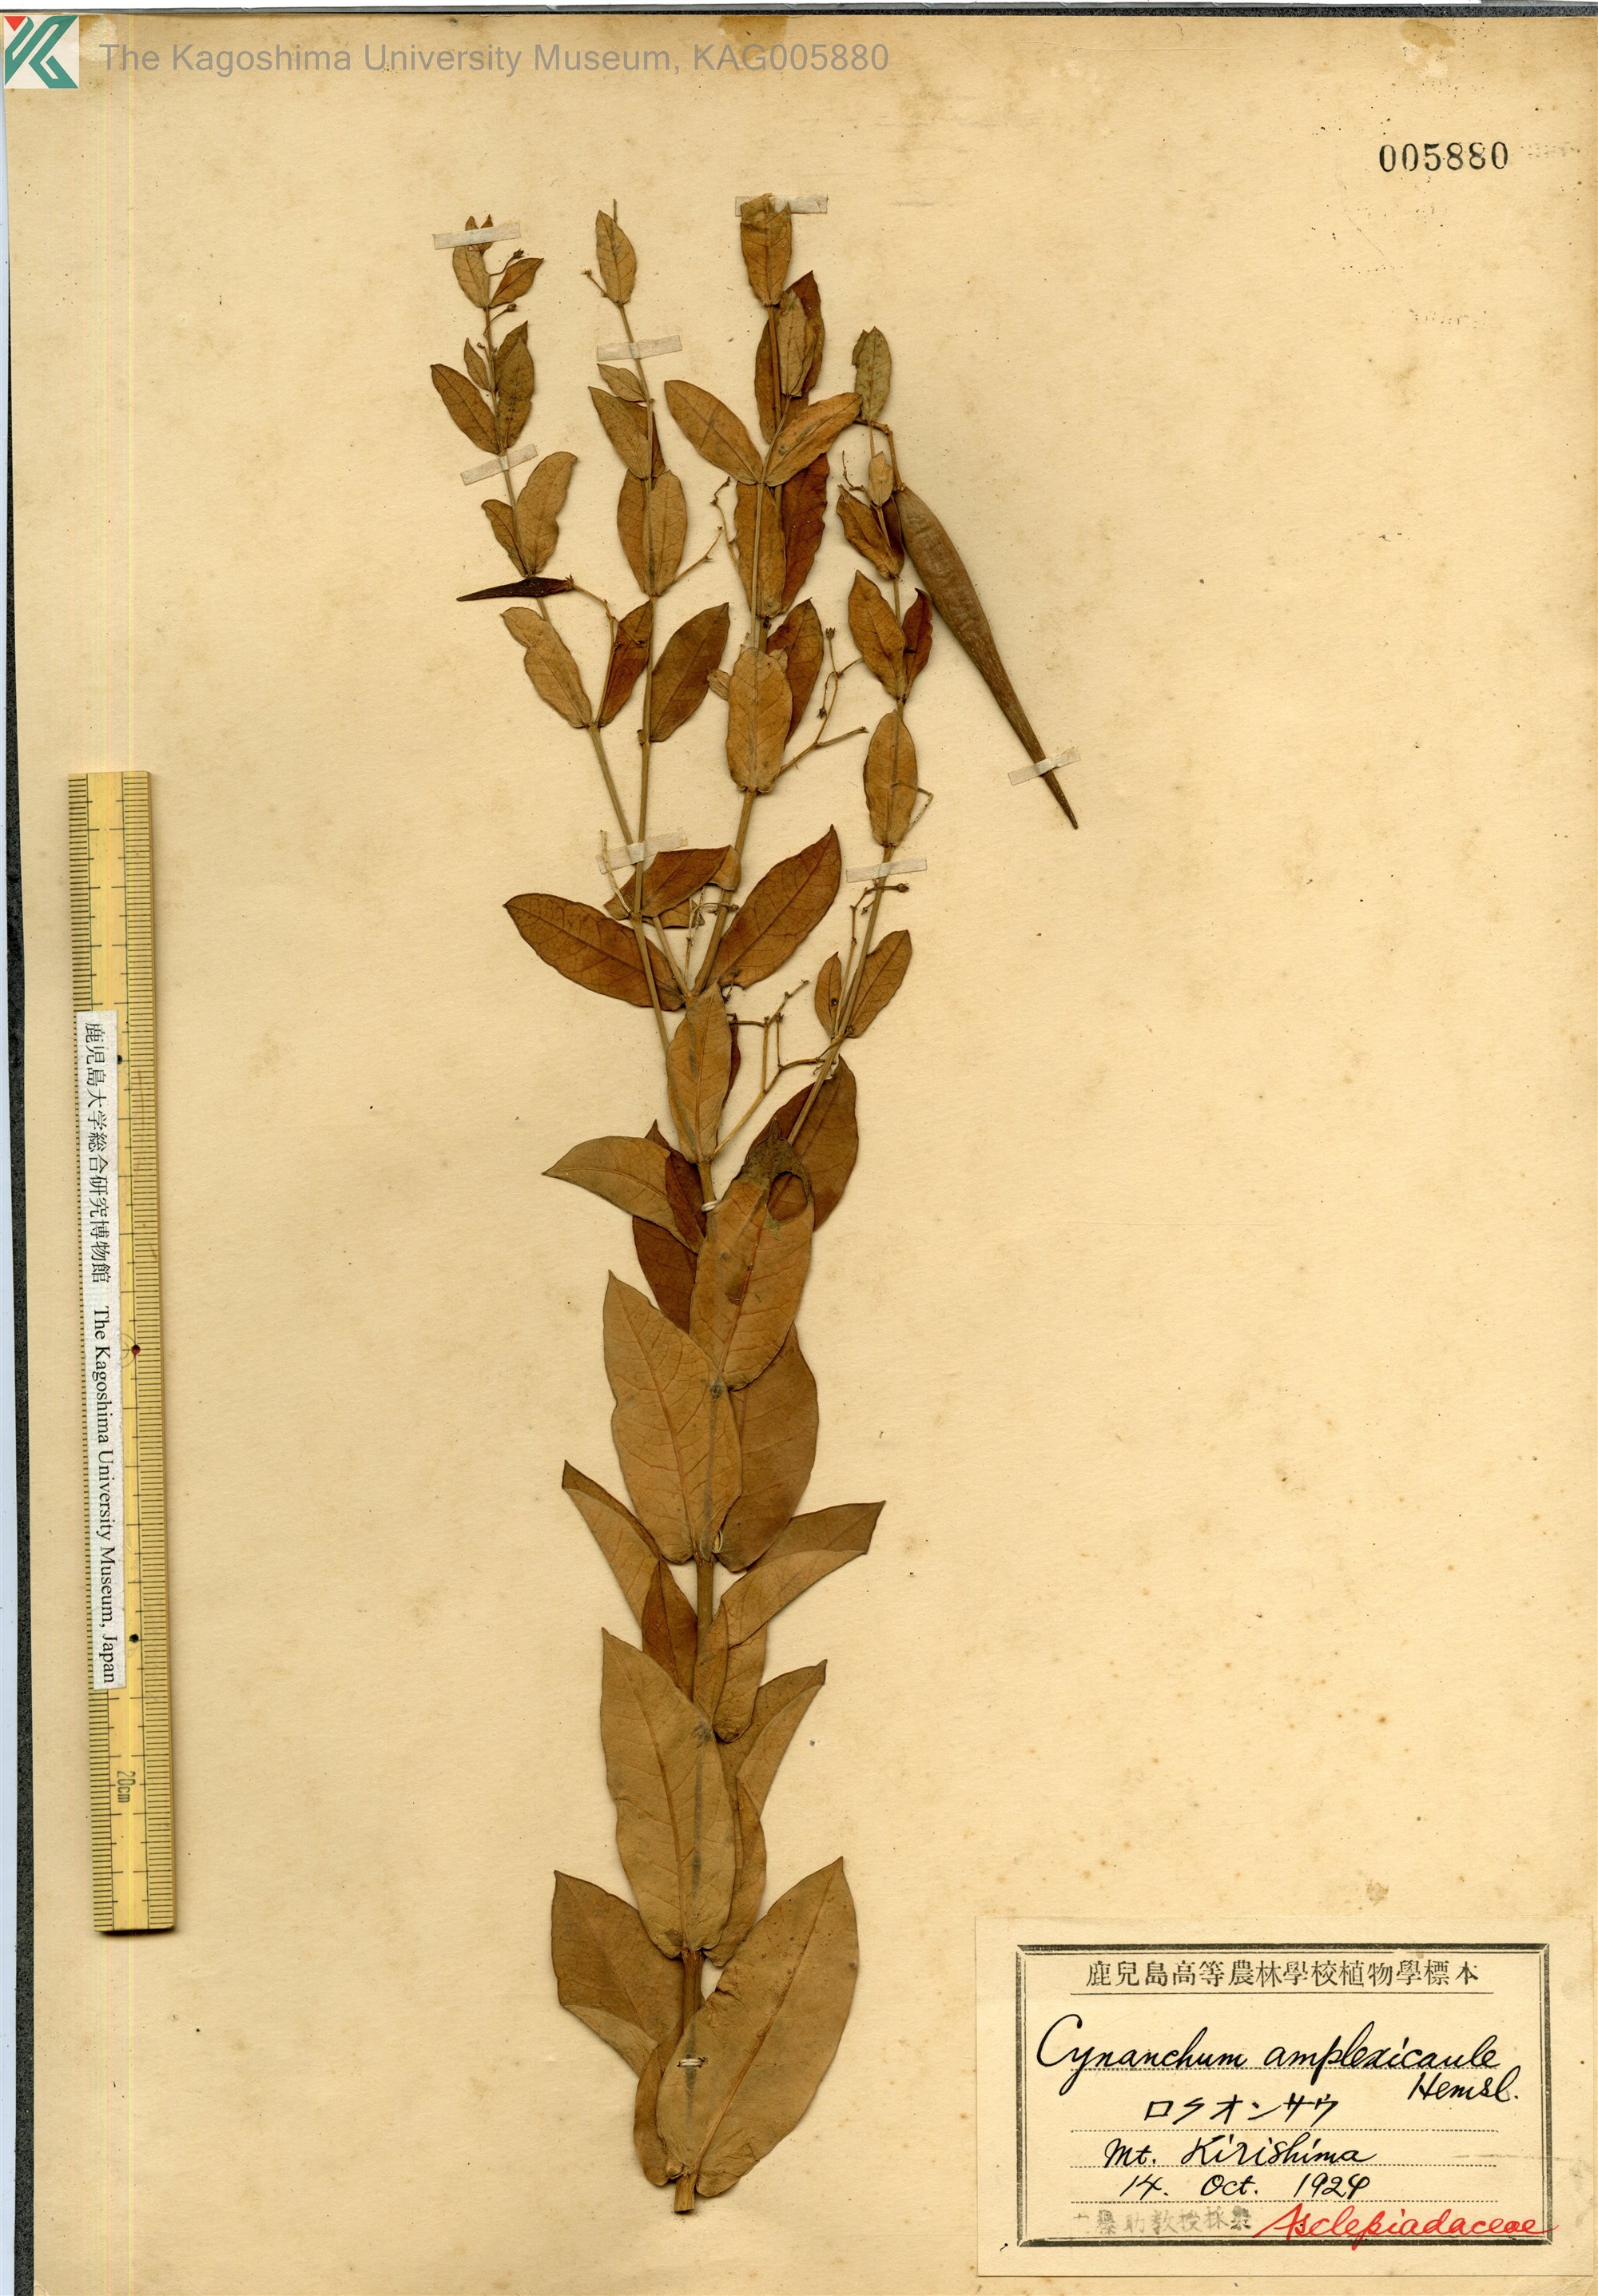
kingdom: Plantae
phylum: Tracheophyta
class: Magnoliopsida
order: Gentianales
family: Apocynaceae
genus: Vincetoxicum
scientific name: Vincetoxicum amplexicaule
